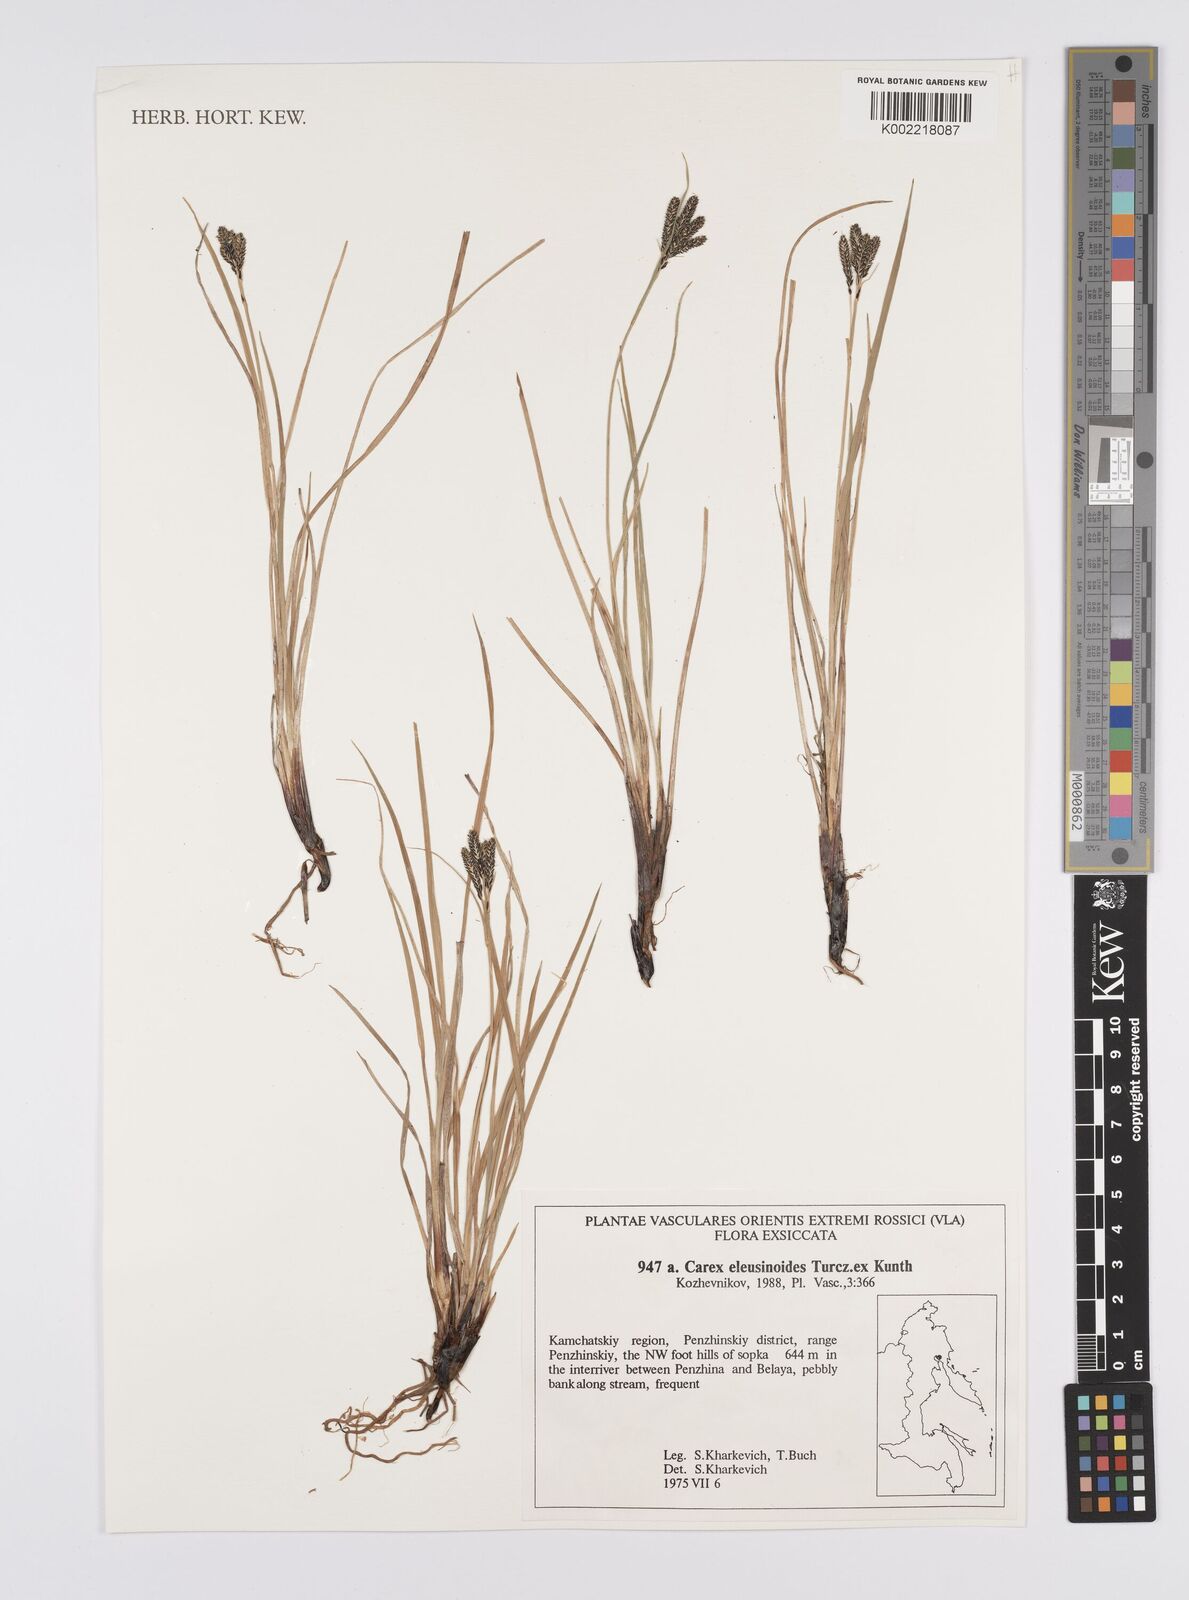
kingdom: Plantae
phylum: Tracheophyta
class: Liliopsida
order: Poales
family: Cyperaceae
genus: Carex
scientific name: Carex dacica
